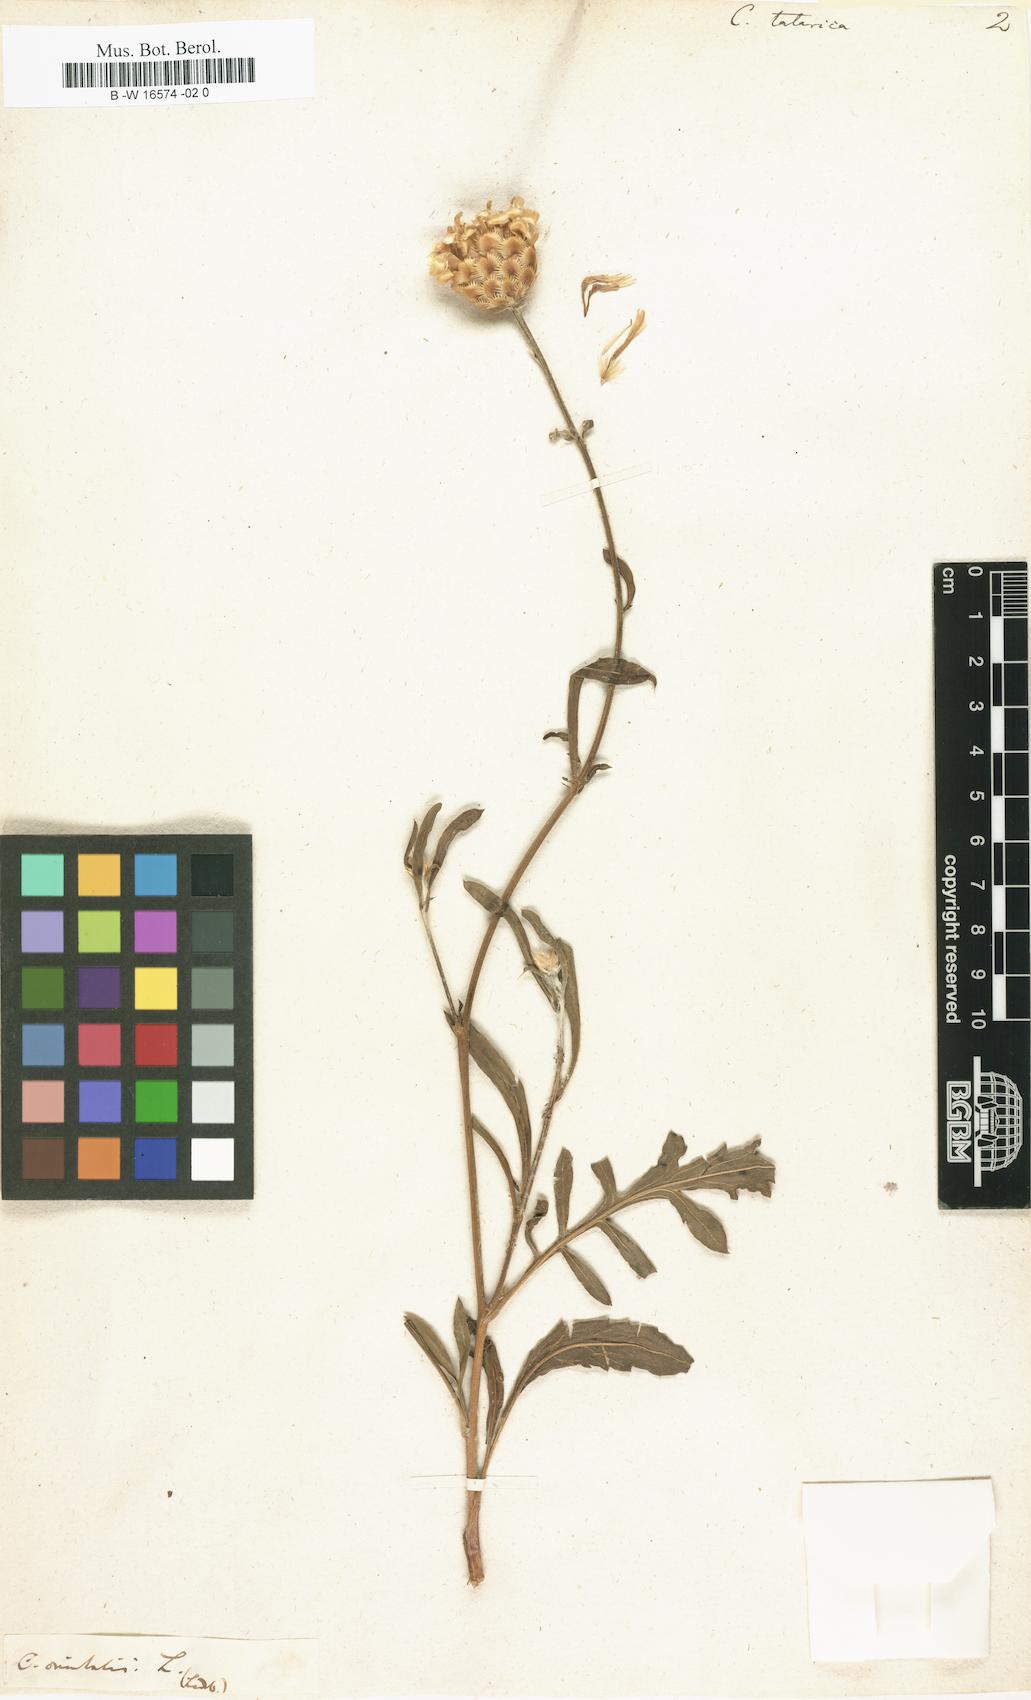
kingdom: Plantae
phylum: Tracheophyta
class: Magnoliopsida
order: Asterales
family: Asteraceae
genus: Centaurea
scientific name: Centaurea
